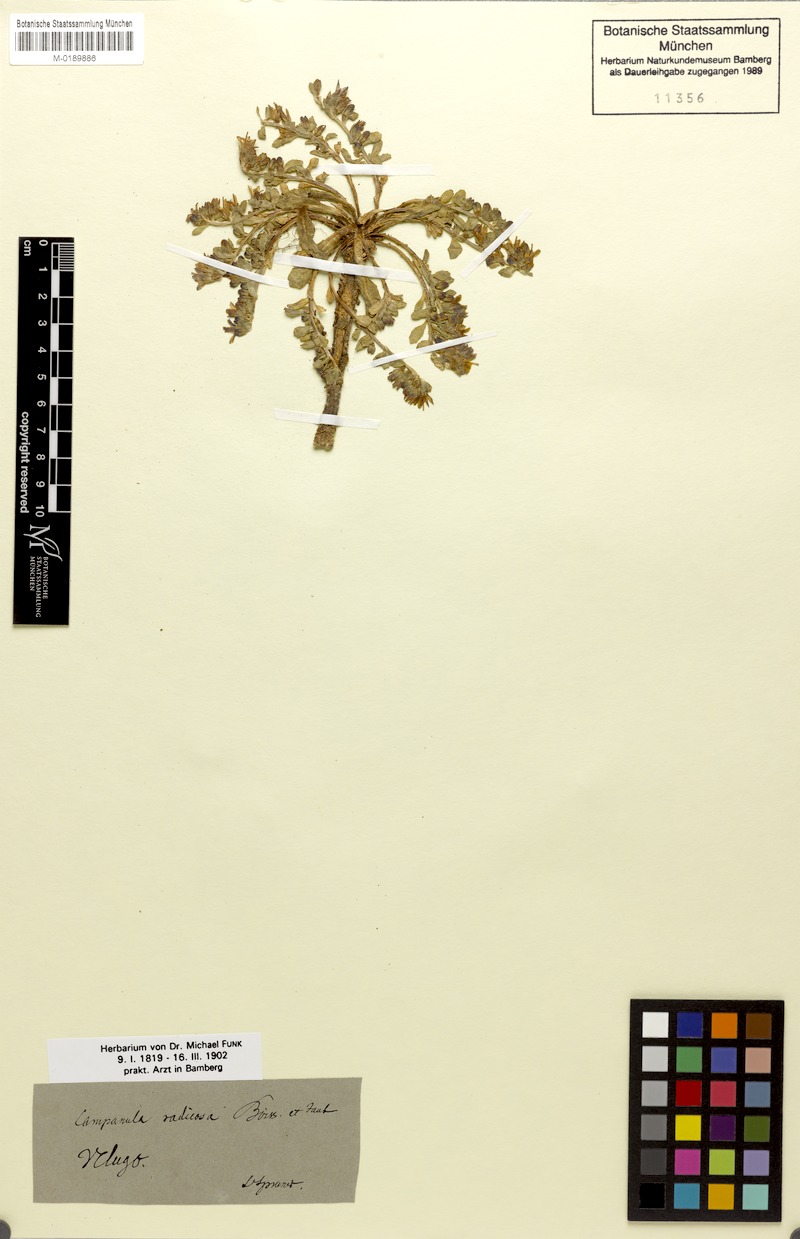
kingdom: Plantae
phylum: Tracheophyta
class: Magnoliopsida
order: Asterales
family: Campanulaceae
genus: Campanula
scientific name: Campanula radicosa
